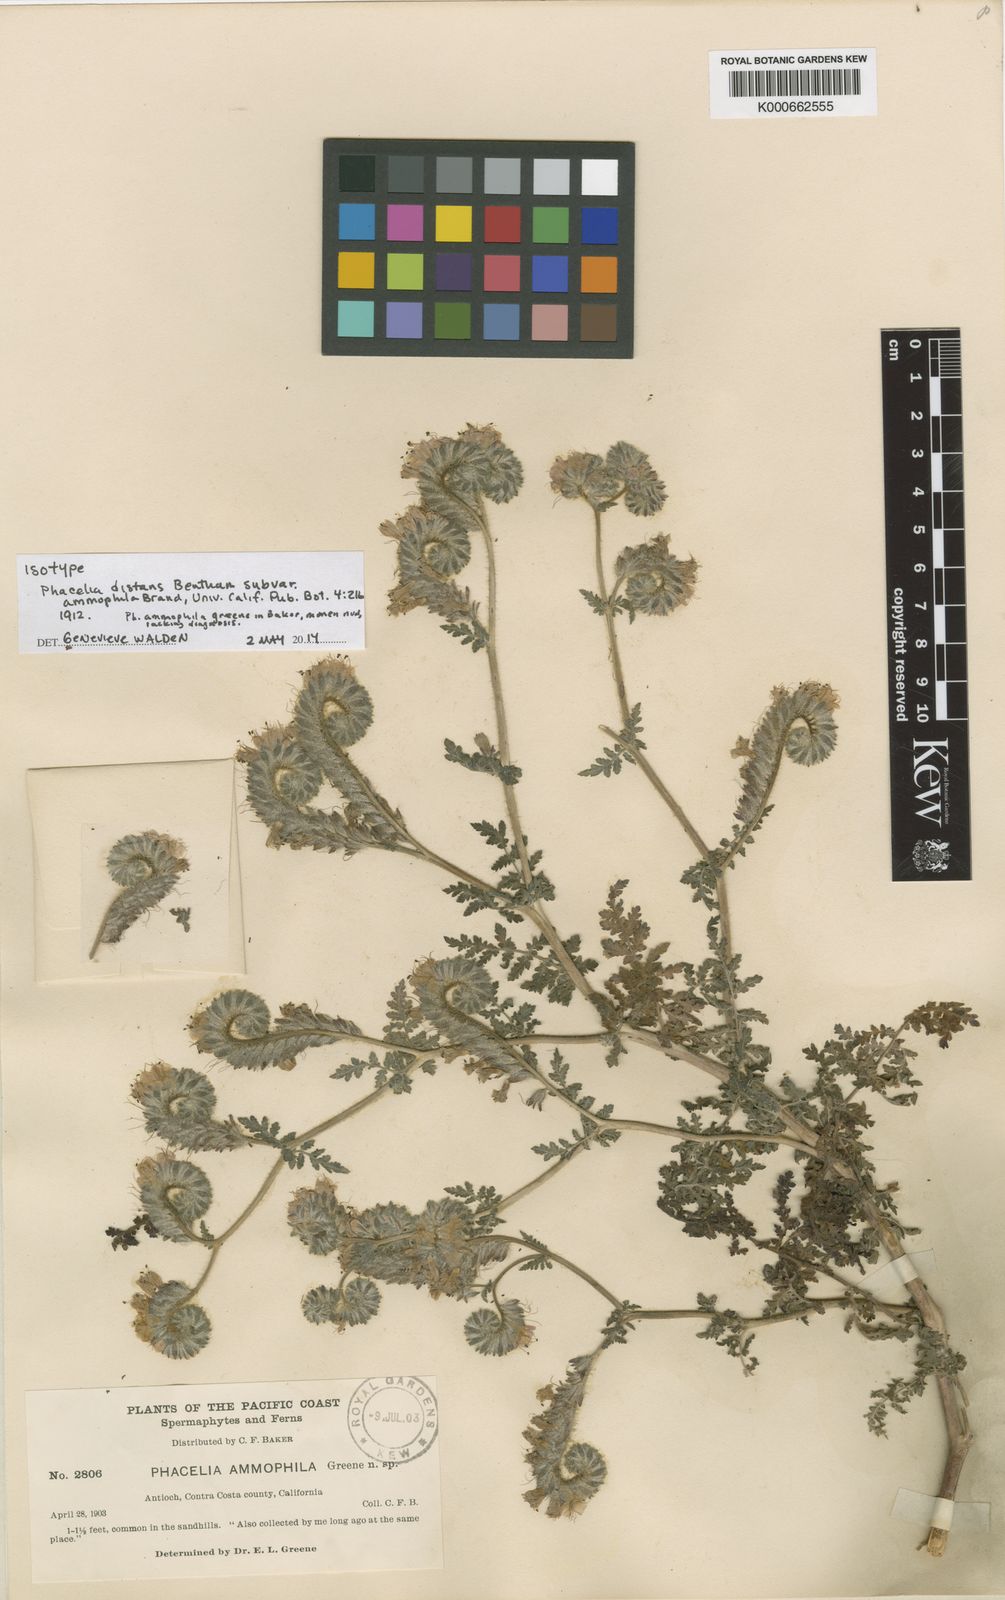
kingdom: Plantae
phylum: Tracheophyta
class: Magnoliopsida
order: Boraginales
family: Hydrophyllaceae
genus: Phacelia
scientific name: Phacelia distans
